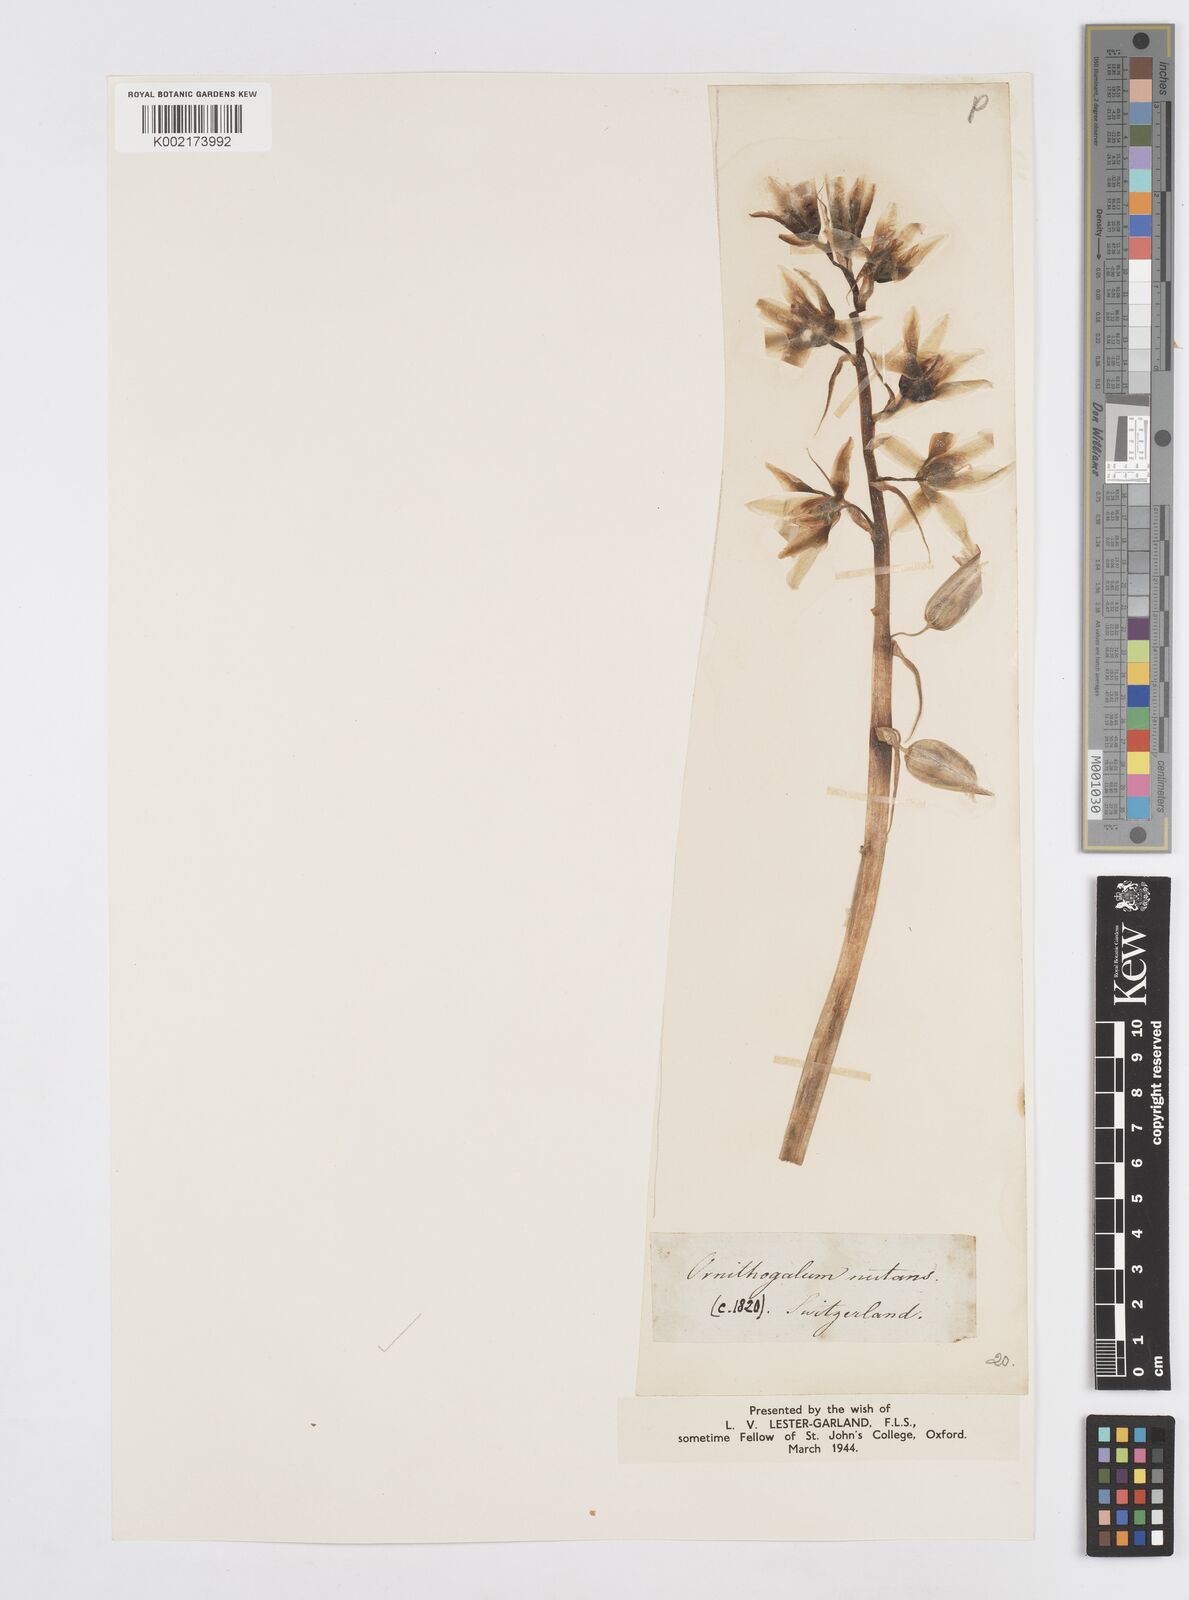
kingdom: Plantae
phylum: Tracheophyta
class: Liliopsida
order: Asparagales
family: Asparagaceae
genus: Ornithogalum
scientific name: Ornithogalum nutans
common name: Drooping star-of-bethlehem
